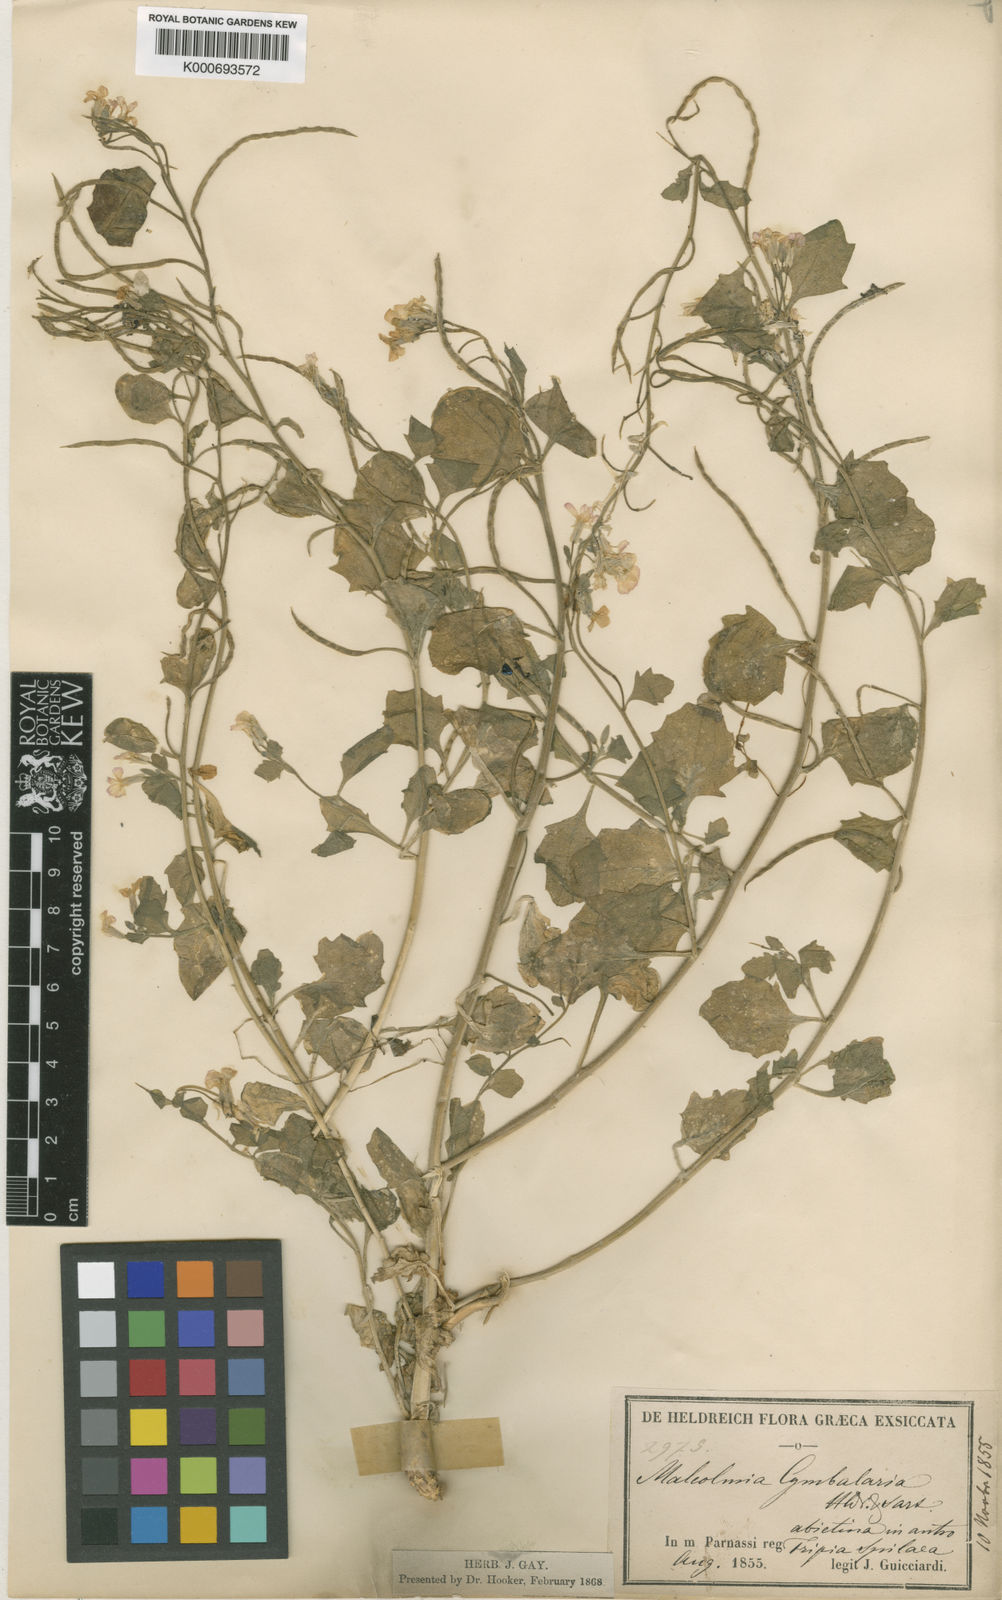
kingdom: Plantae
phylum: Tracheophyta
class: Magnoliopsida
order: Brassicales
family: Brassicaceae
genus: Malcolmia
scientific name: Malcolmia orsiniana
